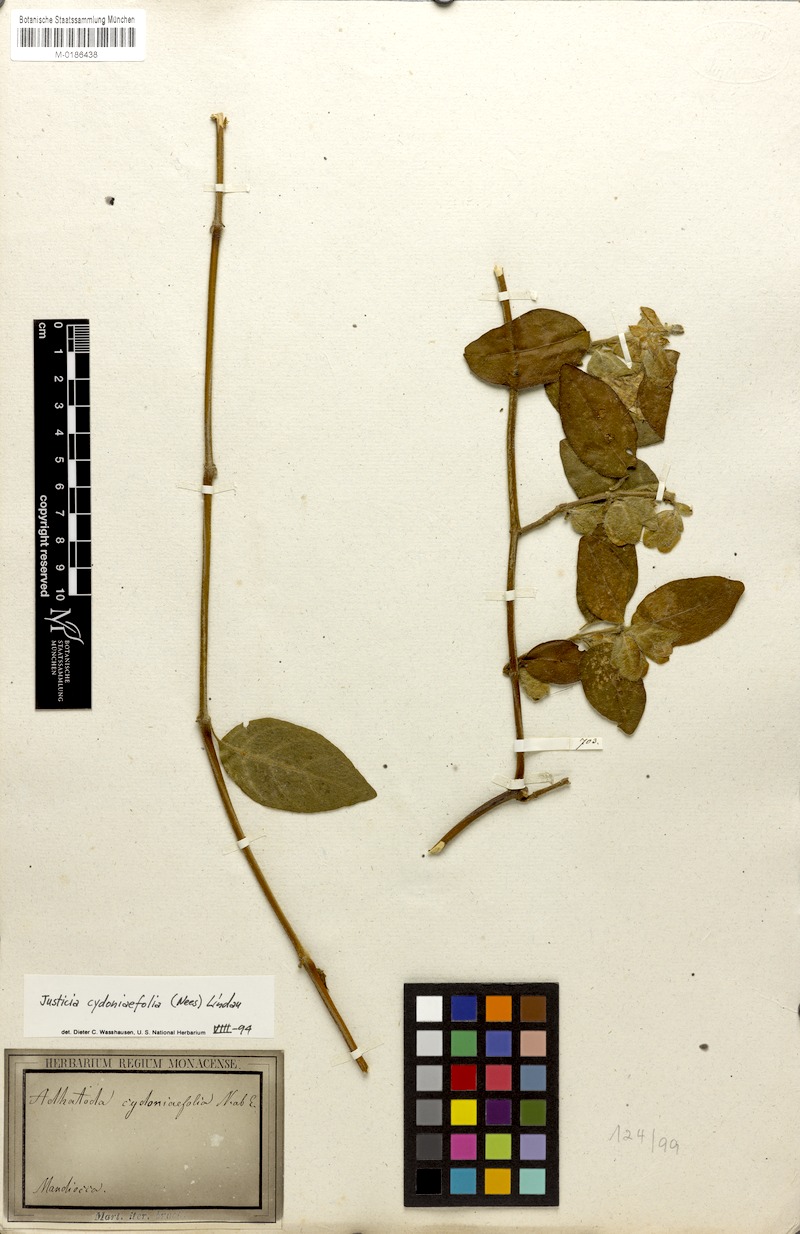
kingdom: Plantae
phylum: Tracheophyta
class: Magnoliopsida
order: Lamiales
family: Acanthaceae
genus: Justicia
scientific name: Justicia cydoniifolia
